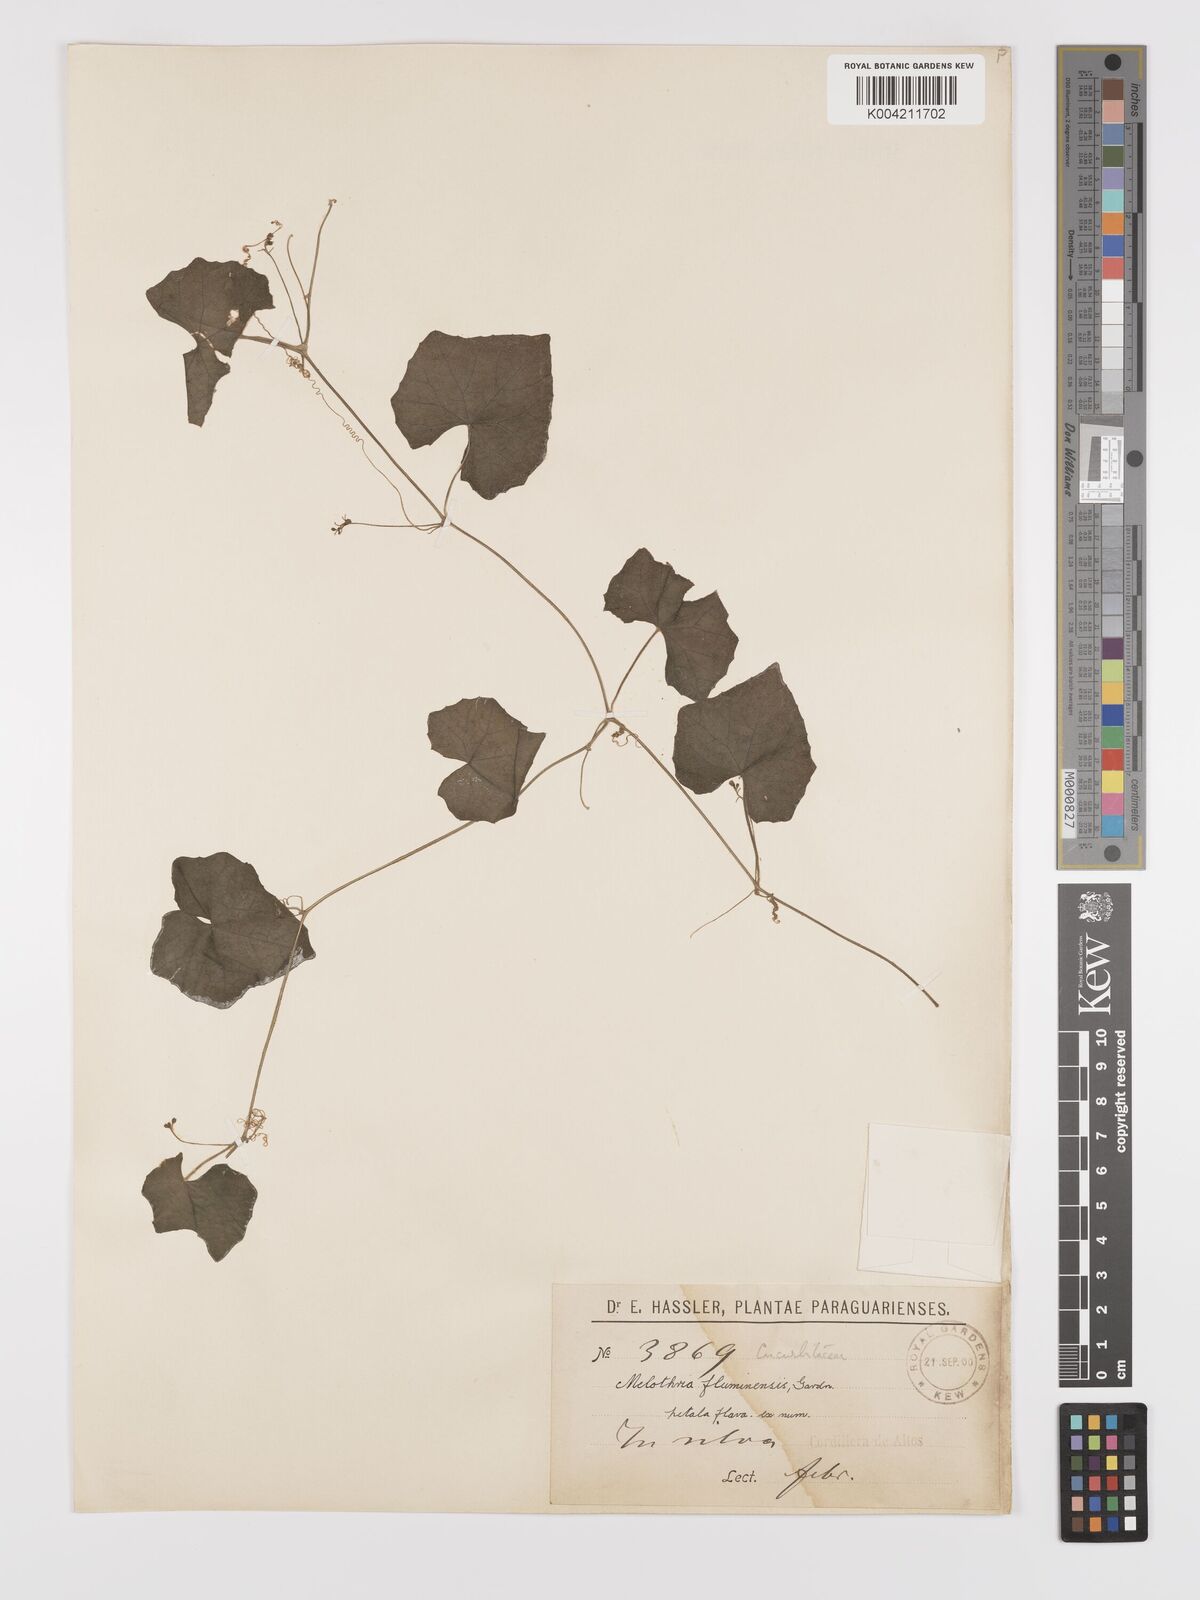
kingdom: Plantae
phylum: Tracheophyta
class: Magnoliopsida
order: Cucurbitales
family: Cucurbitaceae
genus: Melothria
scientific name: Melothria
